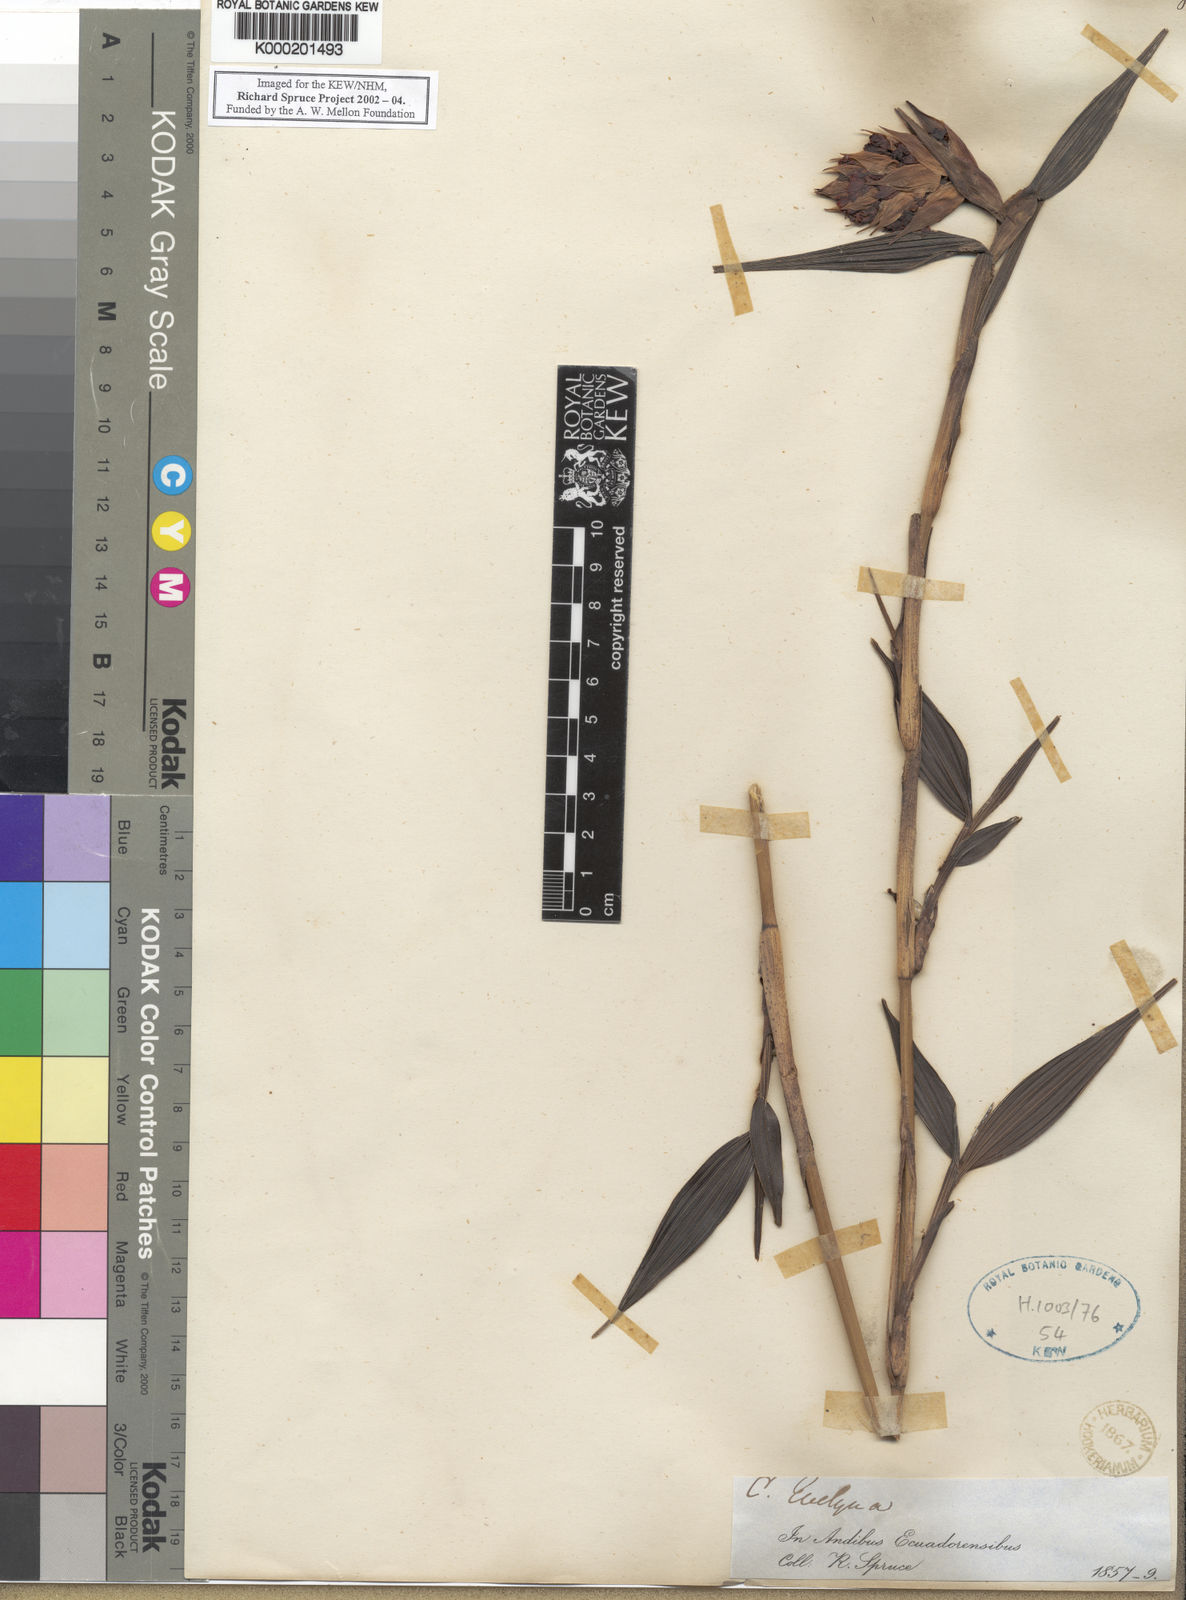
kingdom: Plantae
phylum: Tracheophyta
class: Liliopsida
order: Asparagales
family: Orchidaceae
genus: Elleanthus
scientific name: Elleanthus aurantiacus
